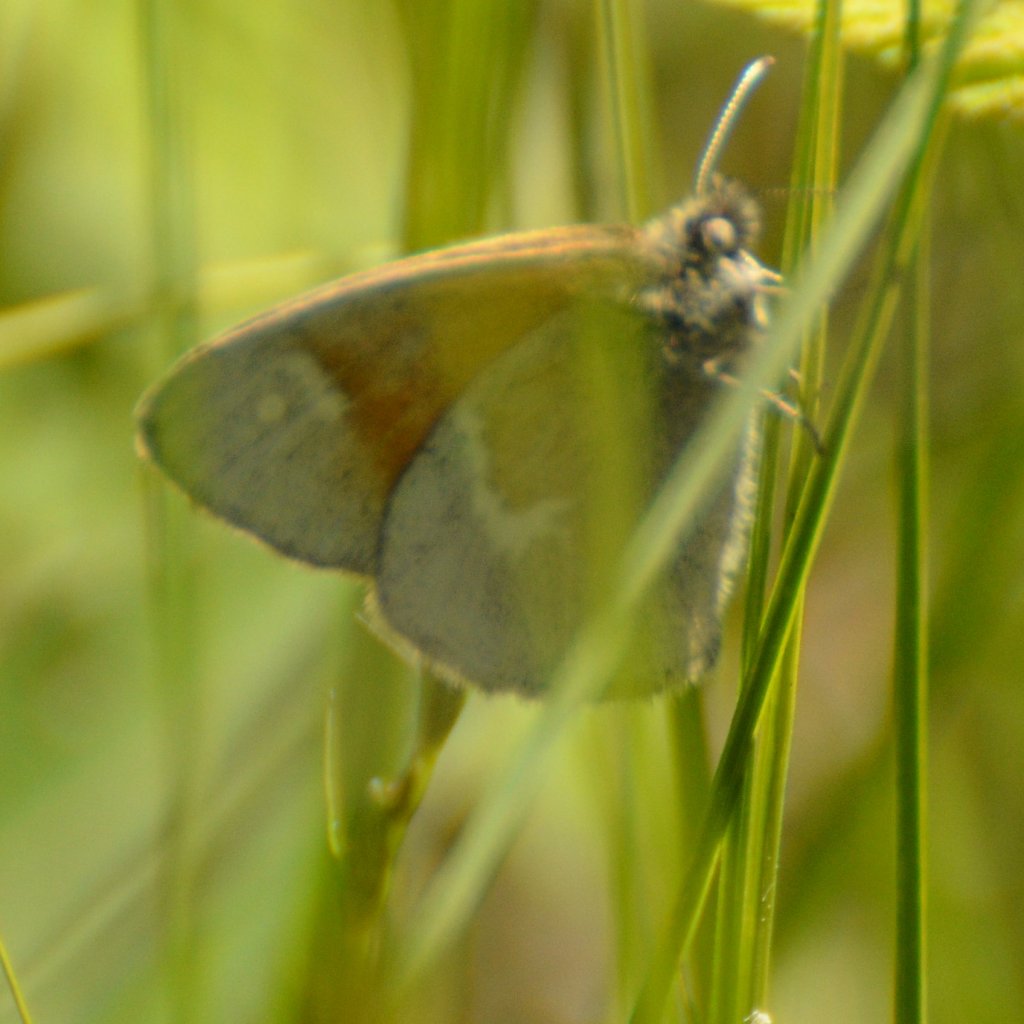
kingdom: Animalia
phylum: Arthropoda
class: Insecta
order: Lepidoptera
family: Nymphalidae
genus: Coenonympha
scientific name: Coenonympha tullia
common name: Large Heath
